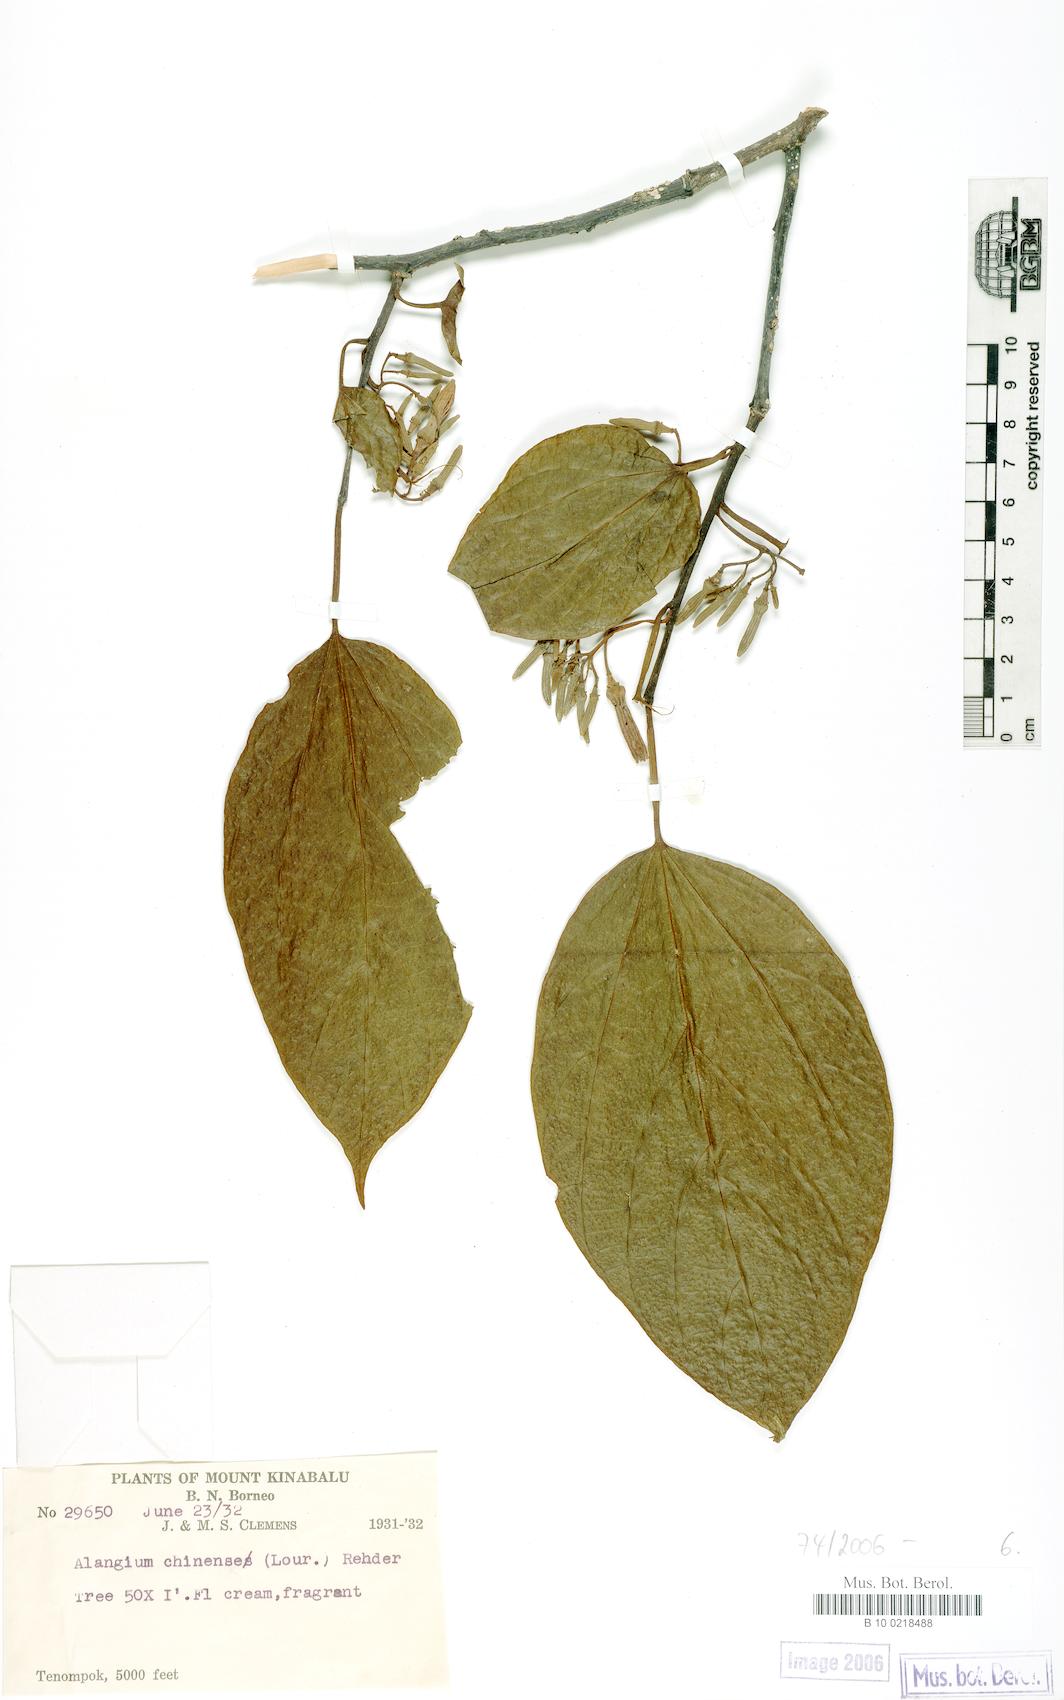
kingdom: Plantae
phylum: Tracheophyta
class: Magnoliopsida
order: Cornales
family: Cornaceae
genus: Alangium
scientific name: Alangium chinense
